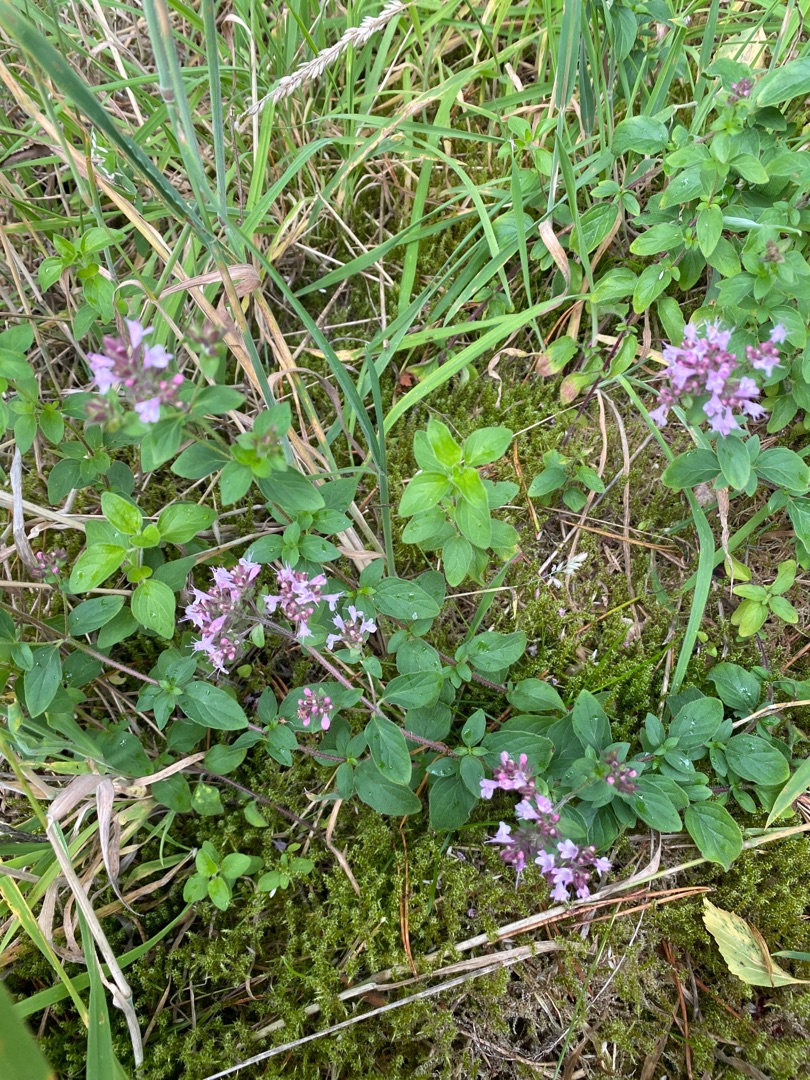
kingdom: Plantae
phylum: Tracheophyta
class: Magnoliopsida
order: Lamiales
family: Lamiaceae
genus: Origanum
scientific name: Origanum vulgare
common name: Merian
